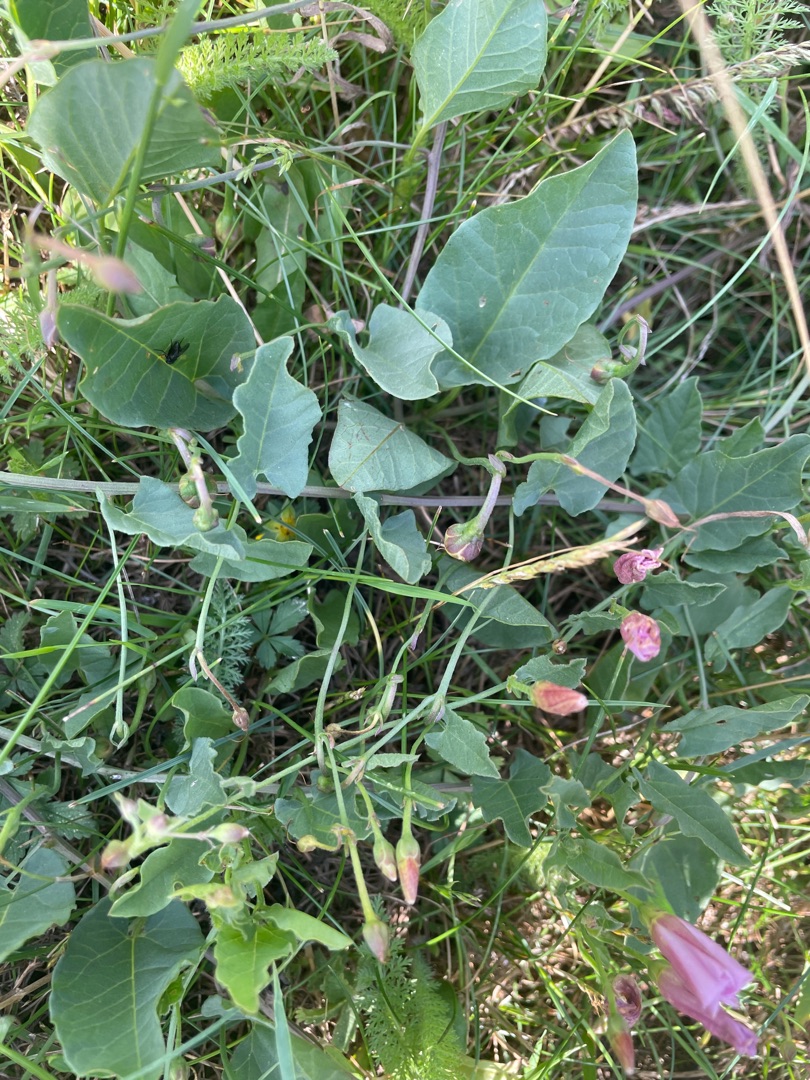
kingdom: Plantae
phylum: Tracheophyta
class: Magnoliopsida
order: Solanales
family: Convolvulaceae
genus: Convolvulus
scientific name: Convolvulus arvensis
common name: Ager-snerle
